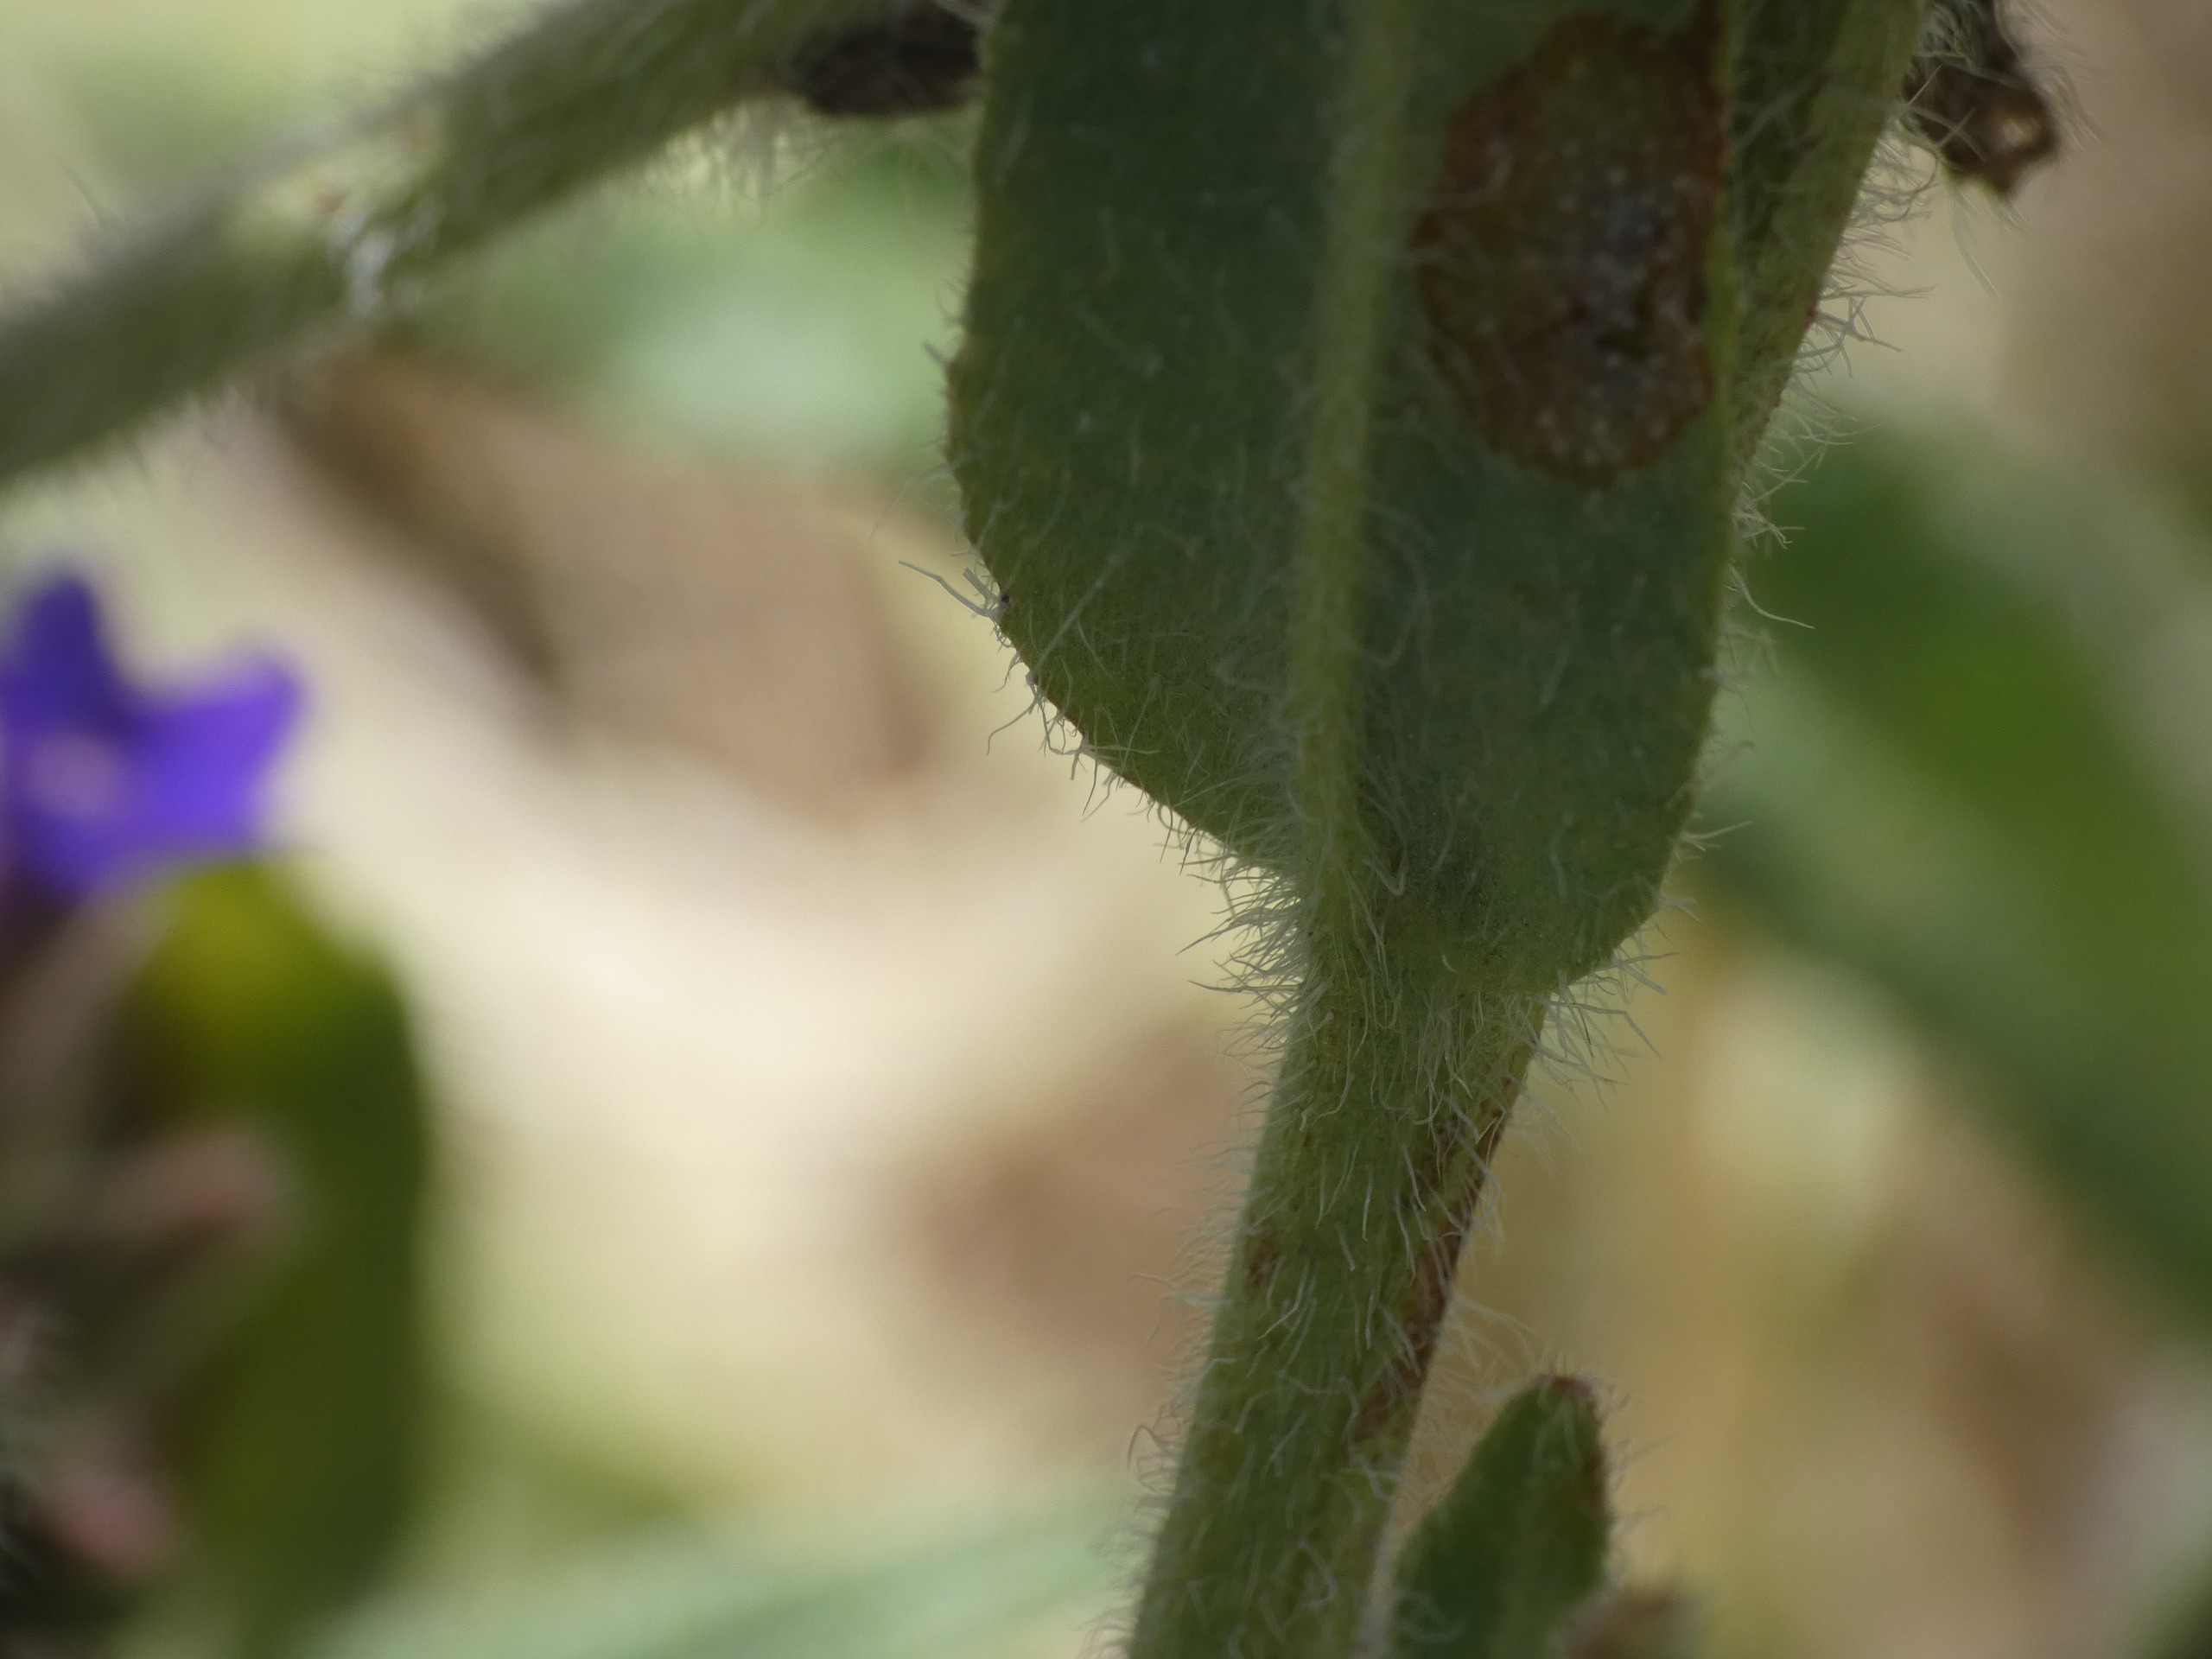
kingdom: Plantae
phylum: Tracheophyta
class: Magnoliopsida
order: Boraginales
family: Boraginaceae
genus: Anchusa
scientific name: Anchusa officinalis
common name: Læge-oksetunge
